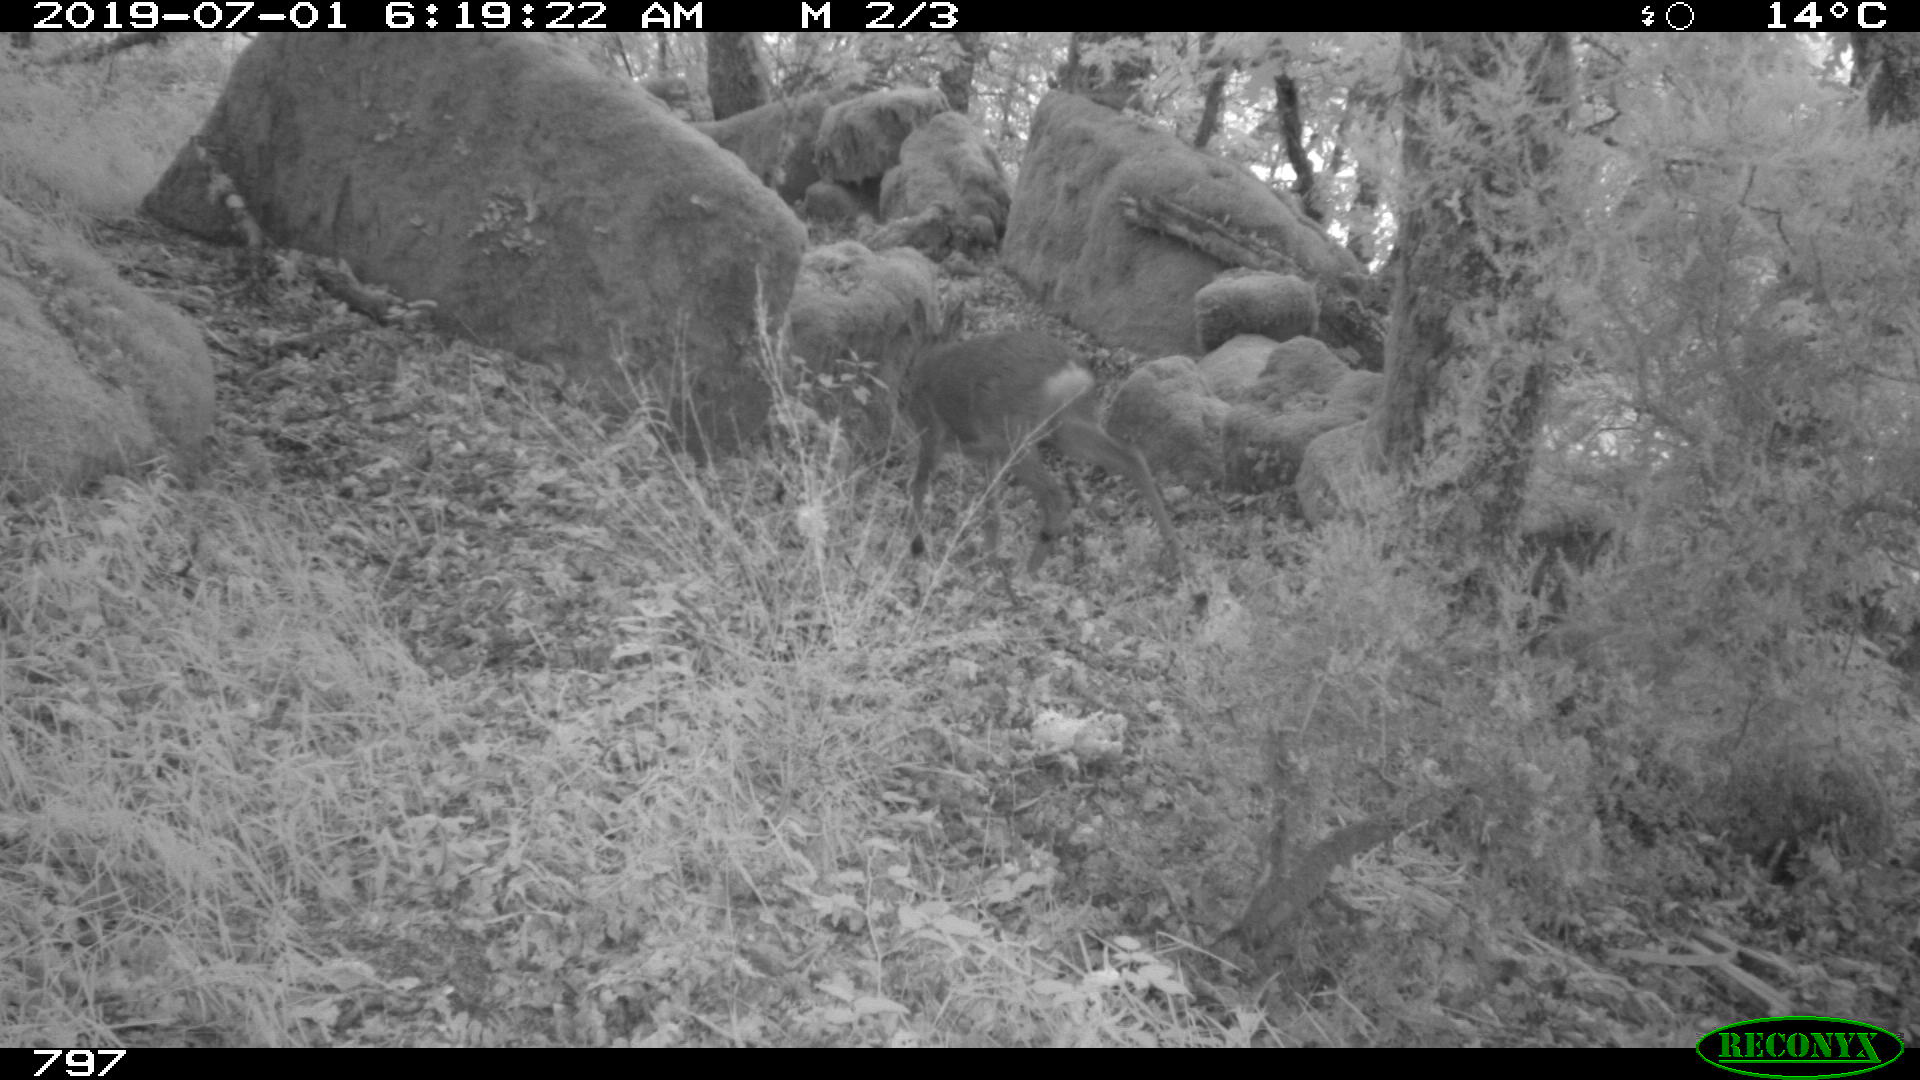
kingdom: Animalia
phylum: Chordata
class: Mammalia
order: Artiodactyla
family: Cervidae
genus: Capreolus
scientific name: Capreolus capreolus
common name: Western roe deer
